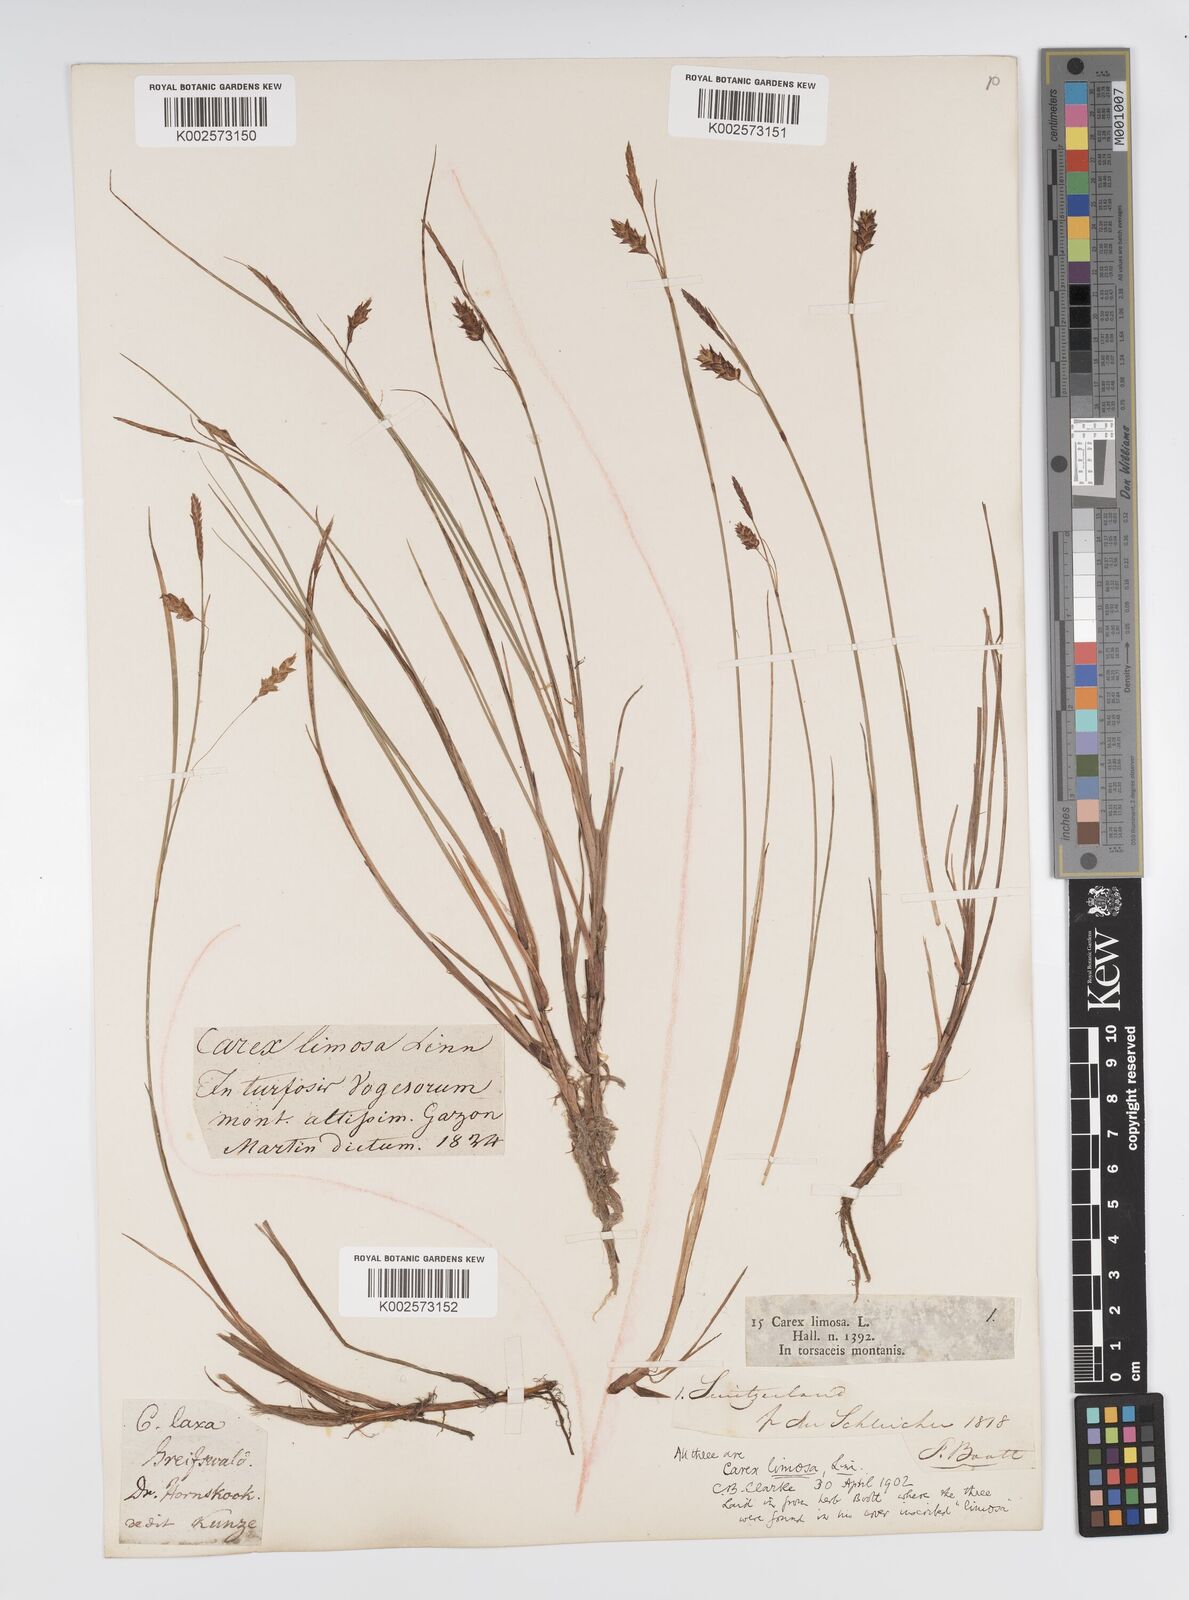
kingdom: Plantae
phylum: Tracheophyta
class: Liliopsida
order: Poales
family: Cyperaceae
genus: Carex
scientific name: Carex limosa
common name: Bog sedge
